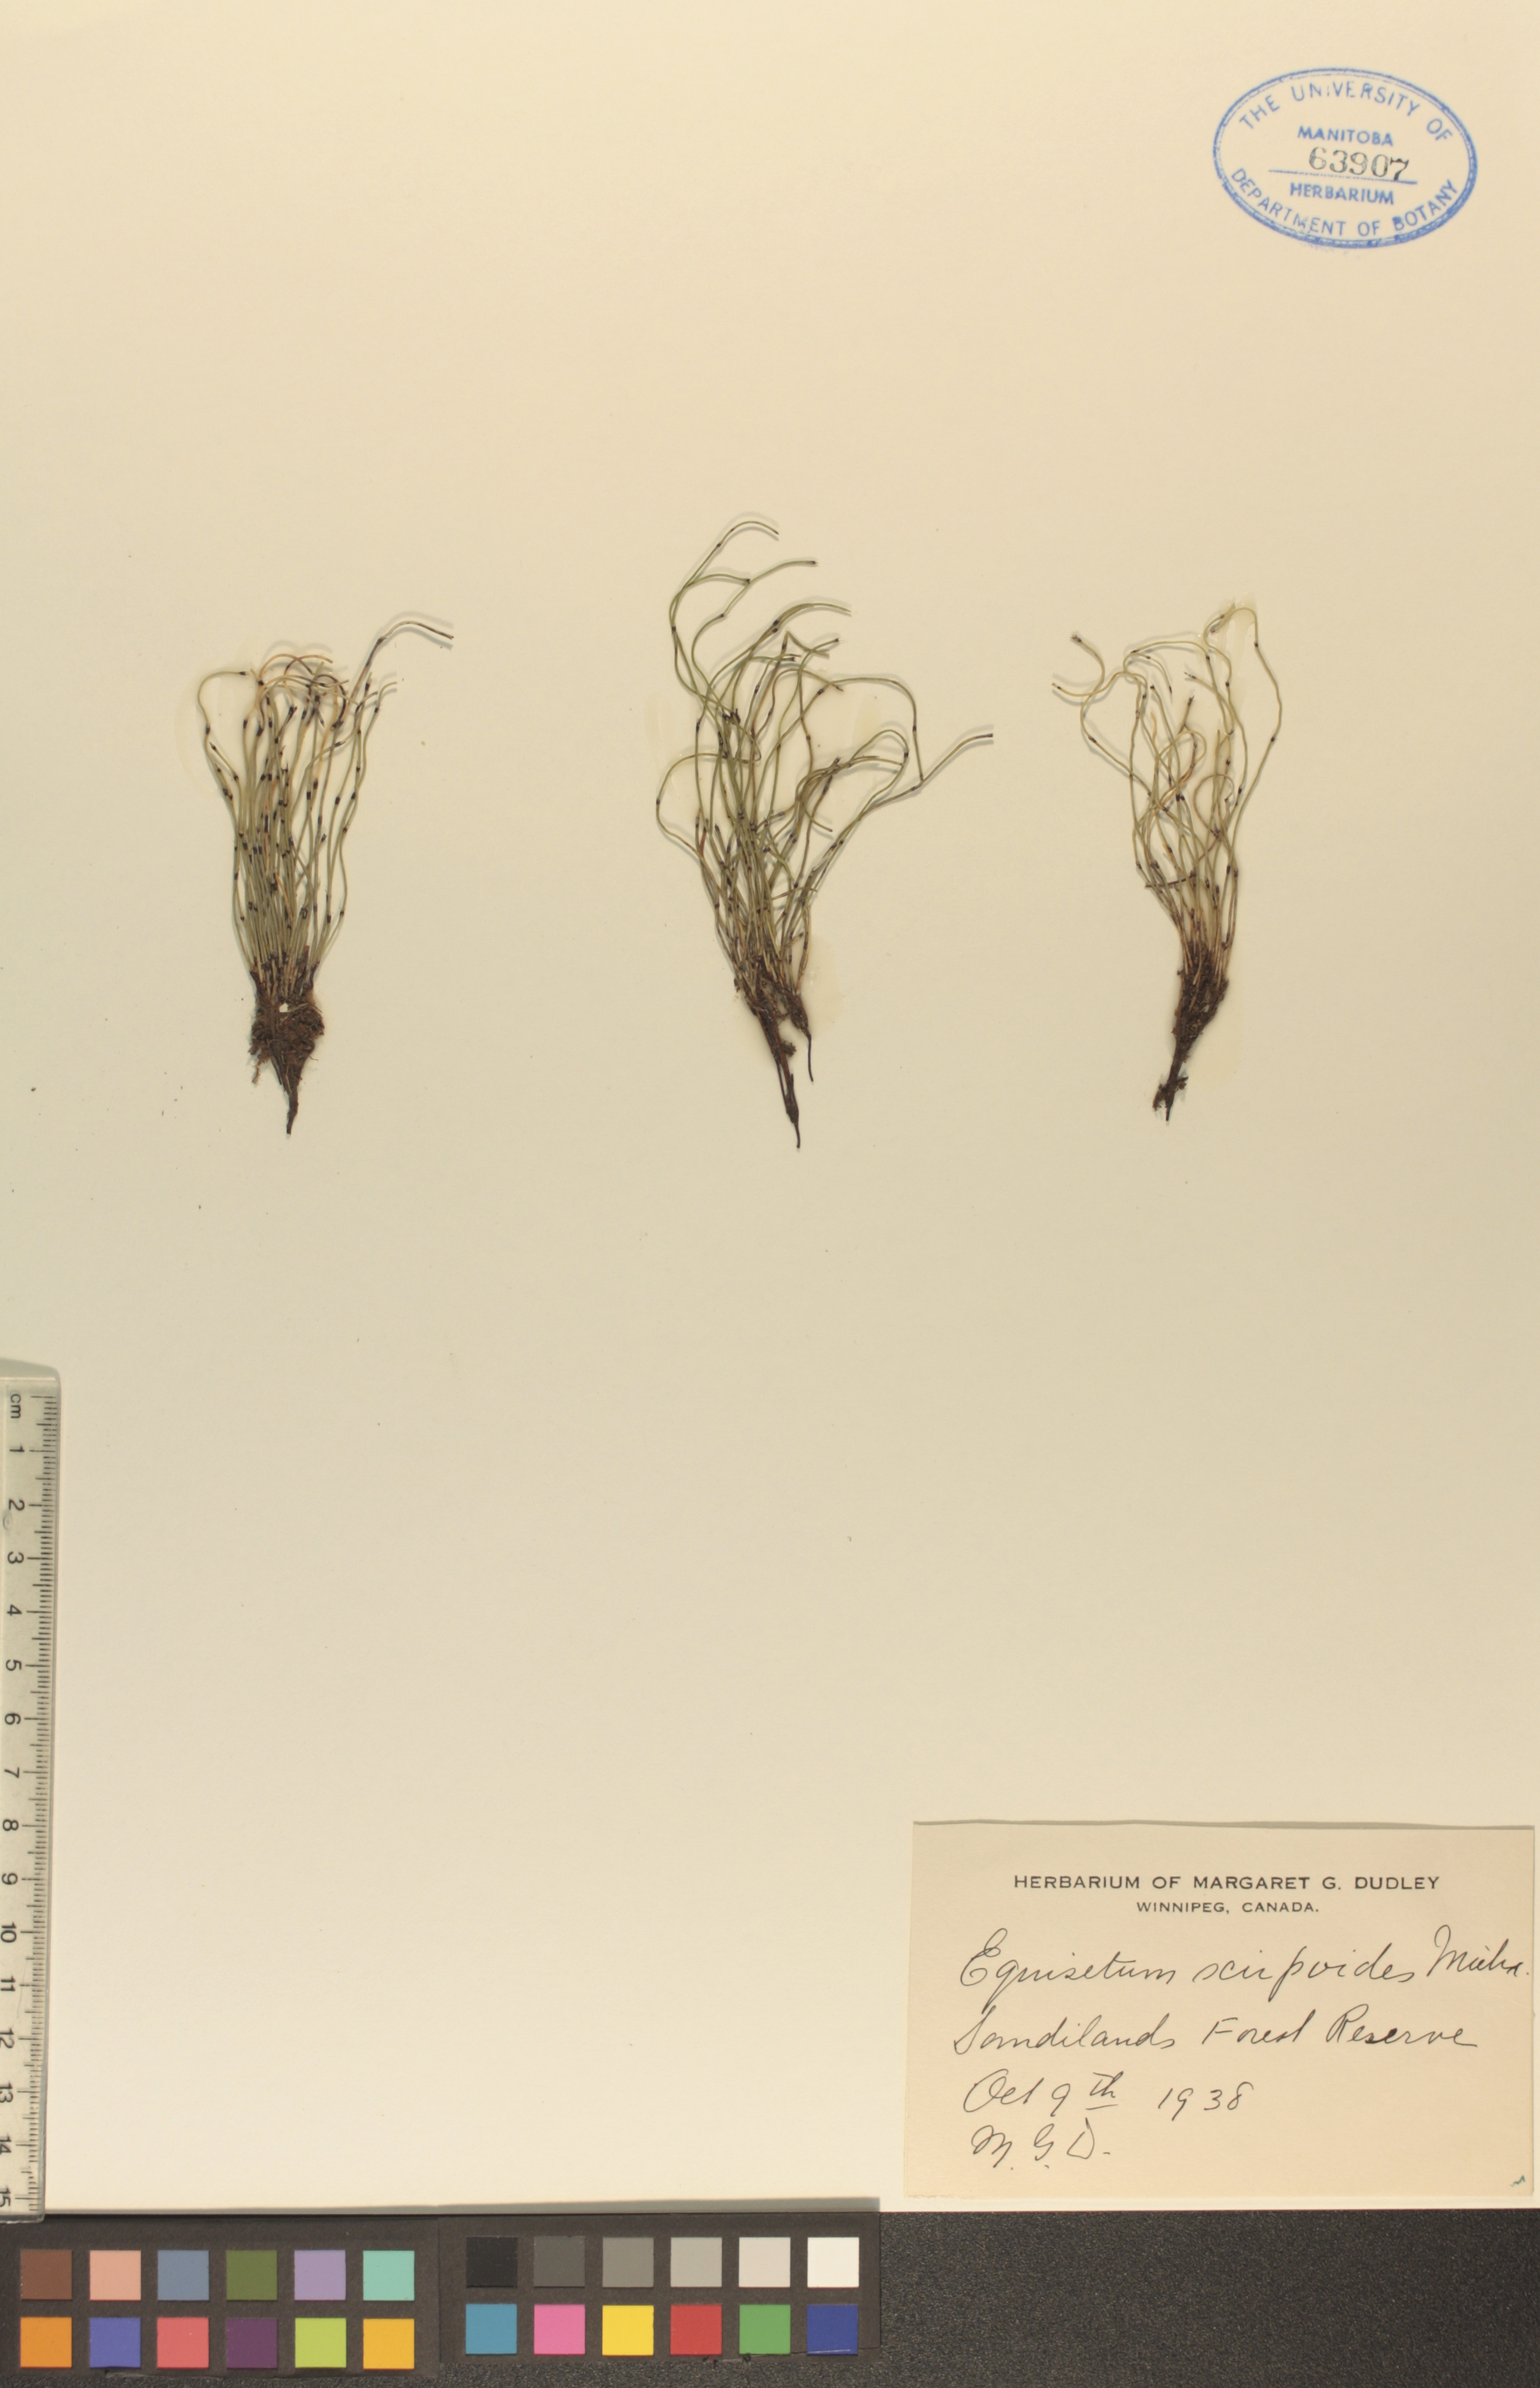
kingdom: Plantae
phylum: Tracheophyta
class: Polypodiopsida
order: Equisetales
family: Equisetaceae
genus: Equisetum
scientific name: Equisetum scirpoides
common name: Delicate horsetail
